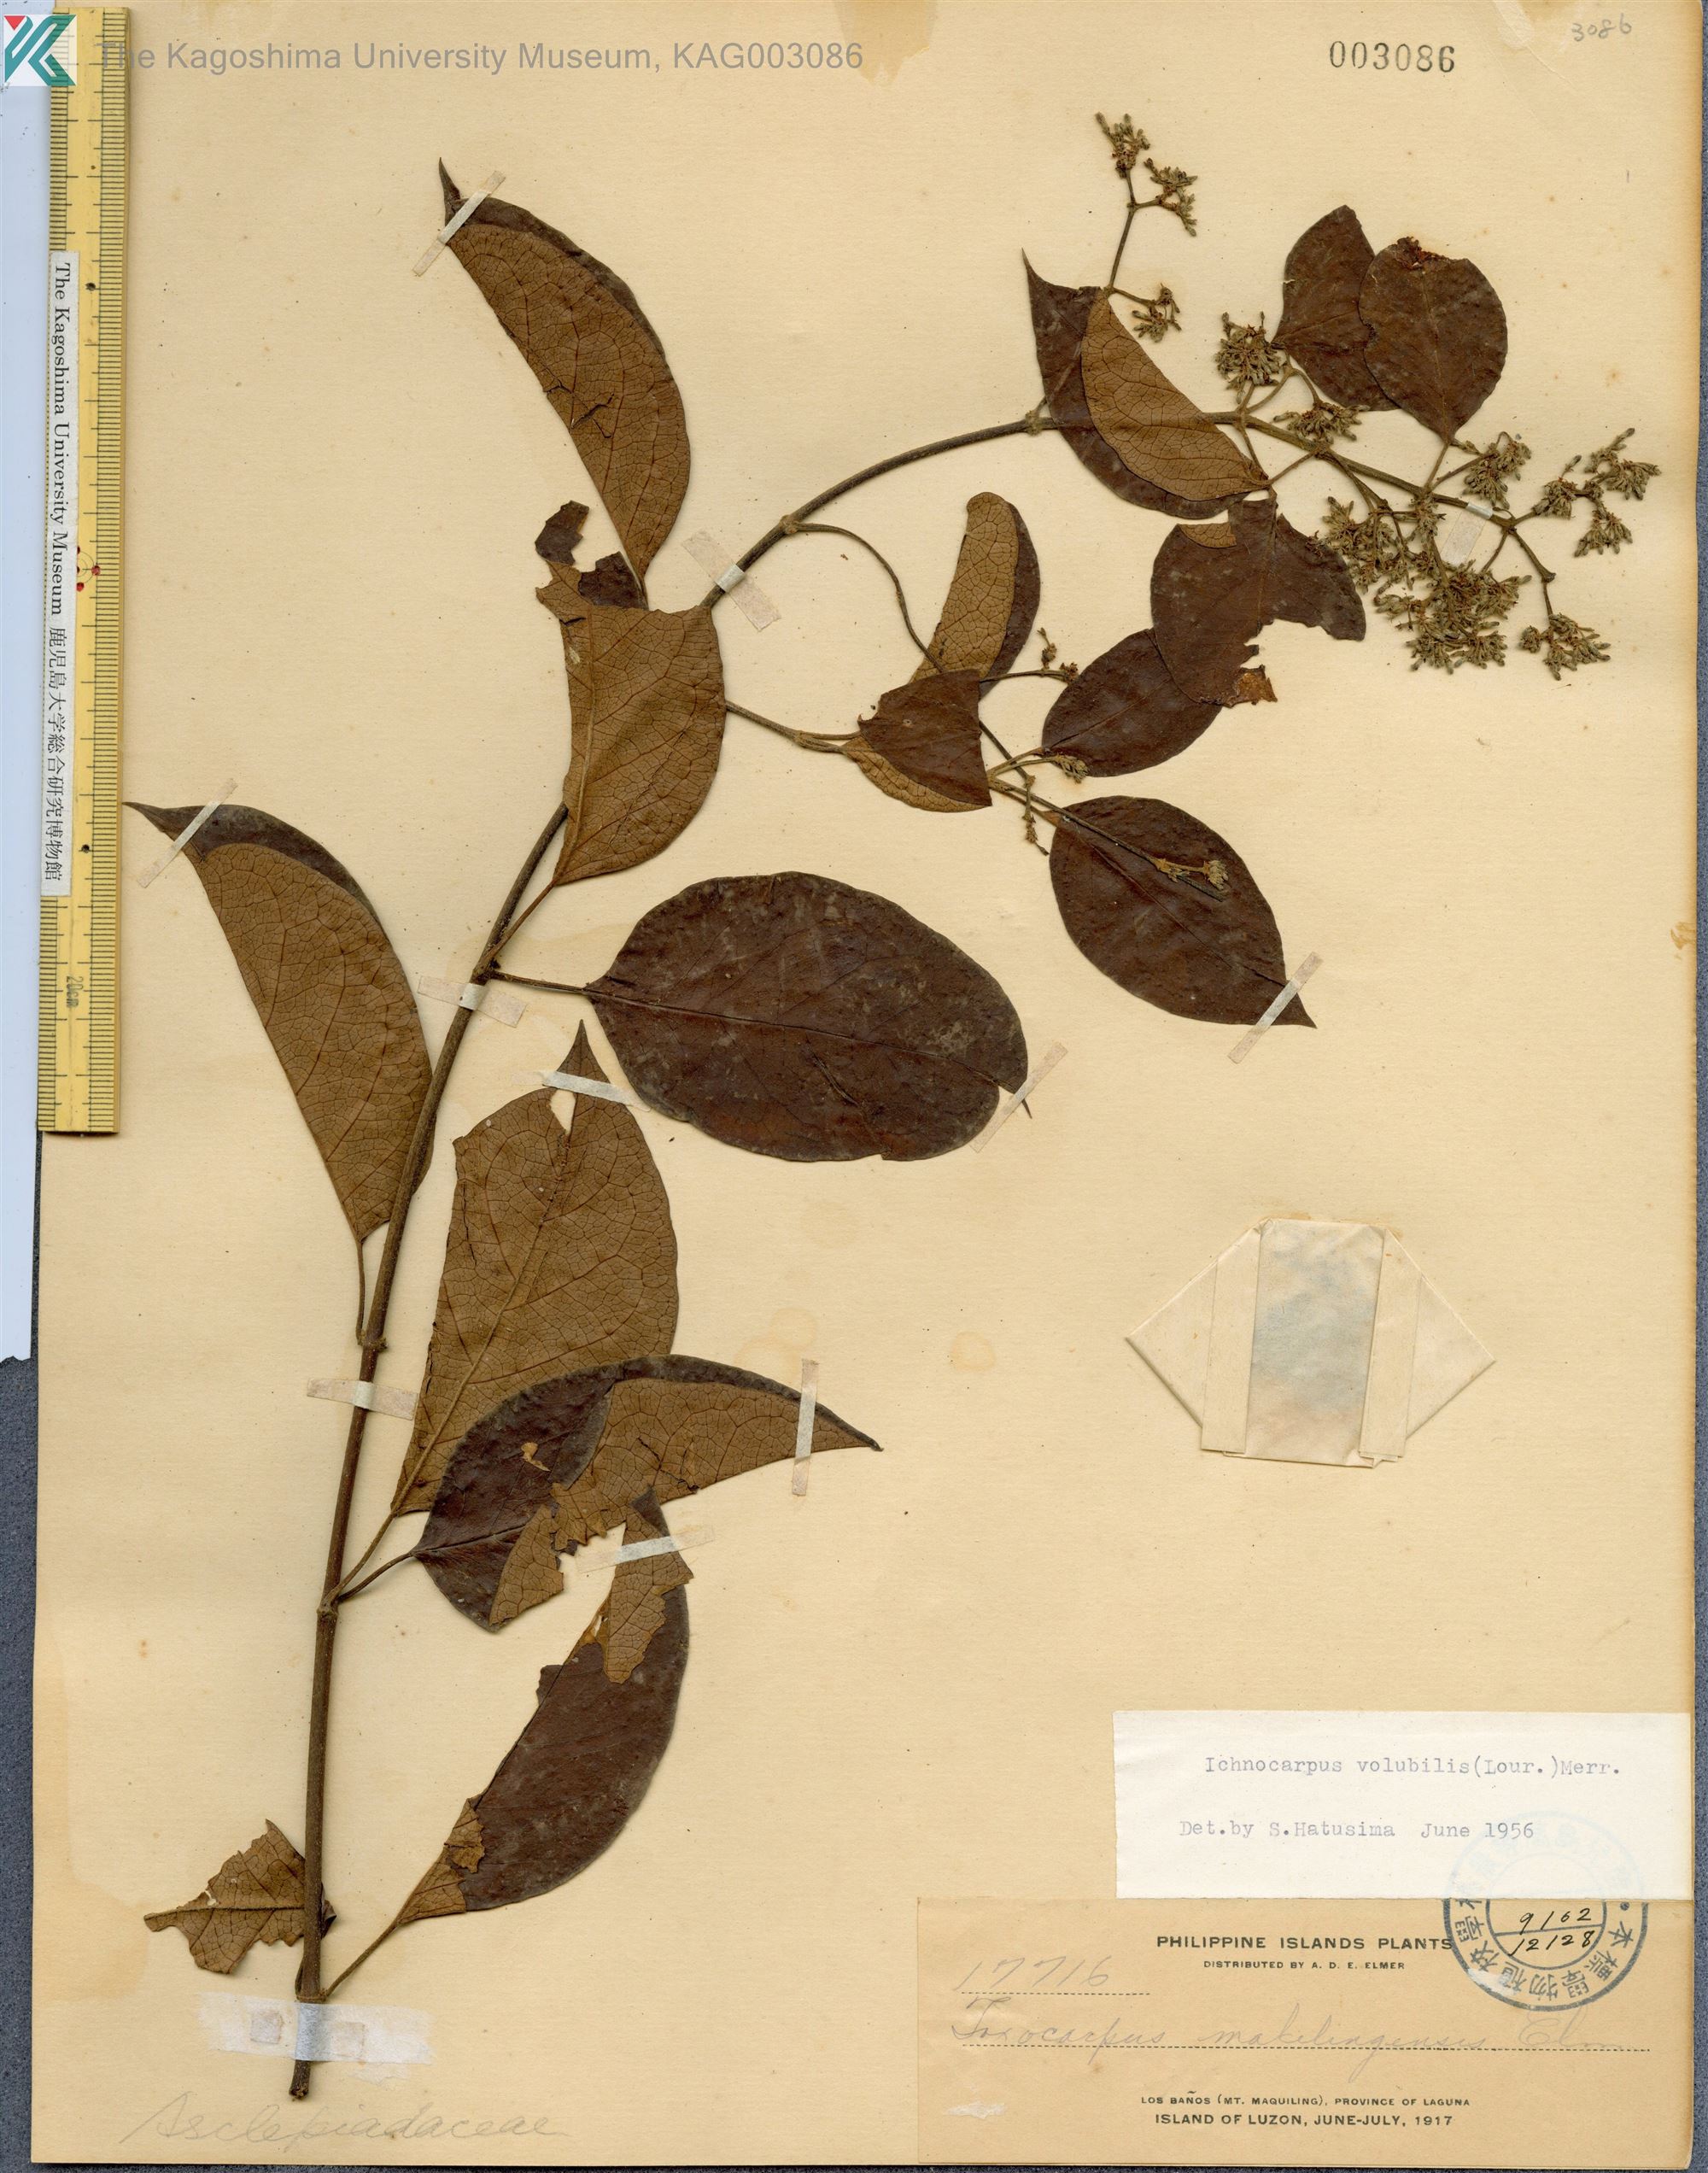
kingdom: Plantae
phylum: Tracheophyta
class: Magnoliopsida
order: Gentianales
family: Apocynaceae
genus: Ichnocarpus
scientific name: Ichnocarpus frutescens
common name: Ichnocarpus
